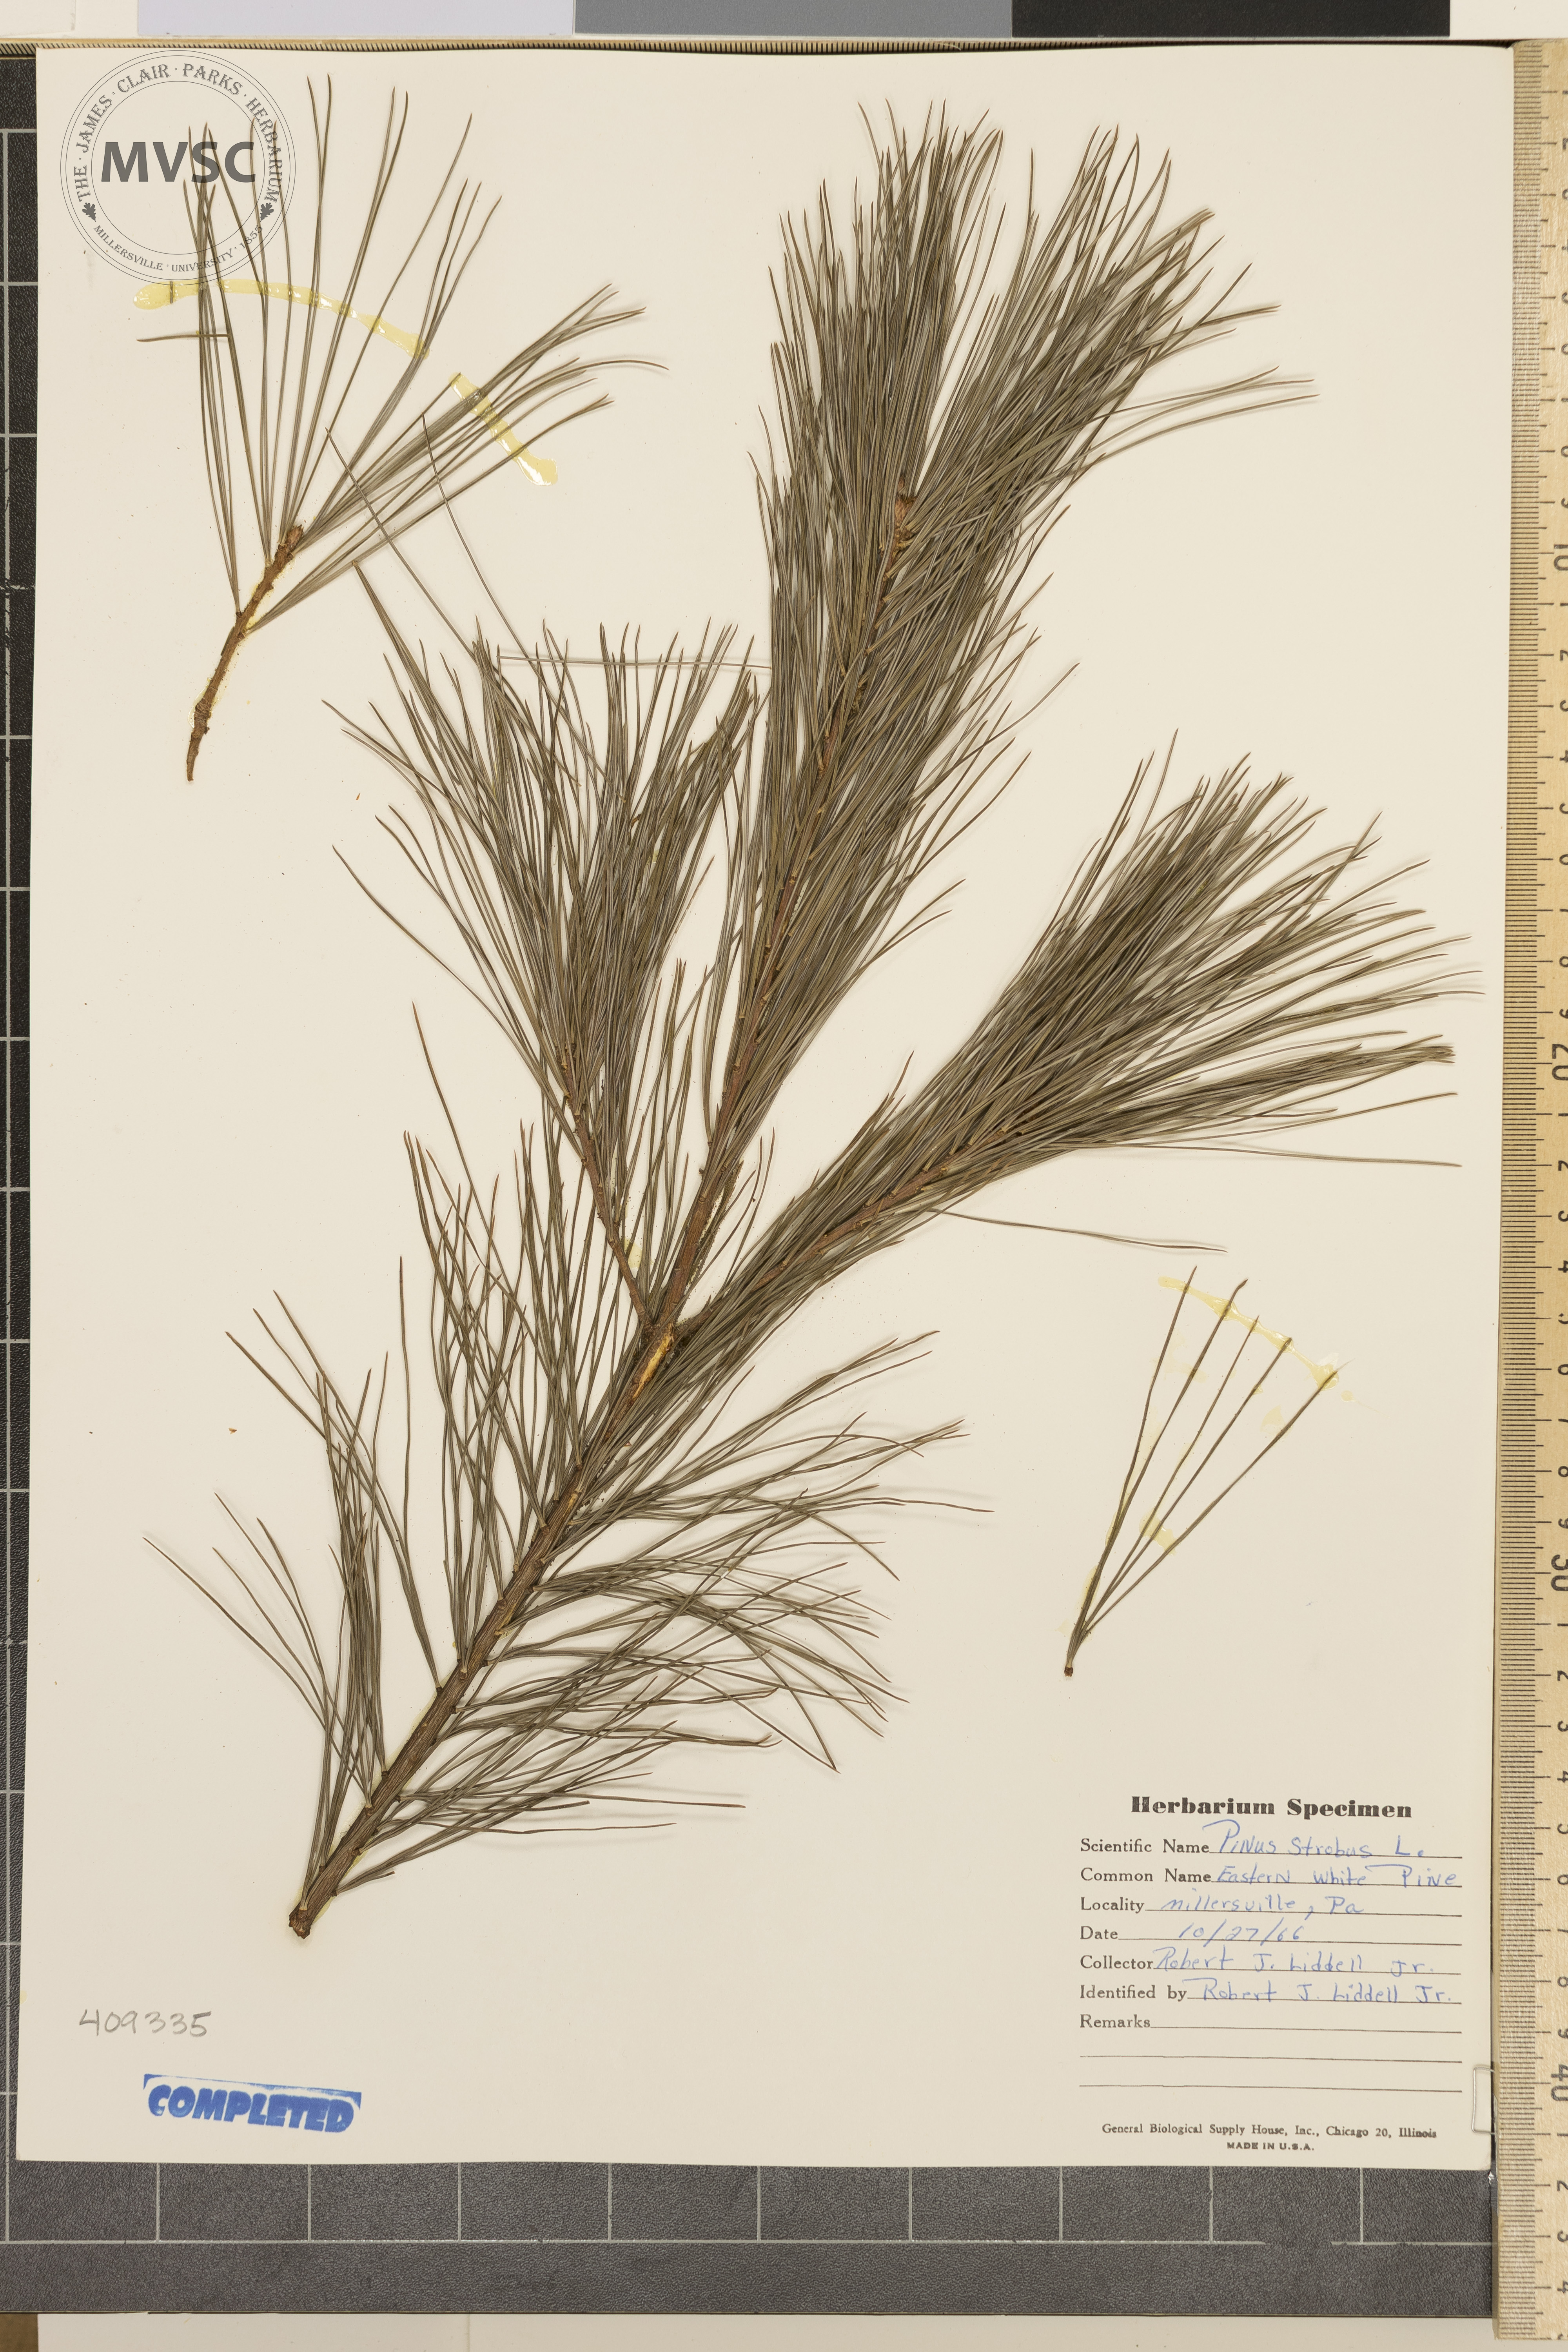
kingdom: Plantae
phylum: Tracheophyta
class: Pinopsida
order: Pinales
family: Pinaceae
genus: Pinus
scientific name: Pinus strobus
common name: Weymouth pine
